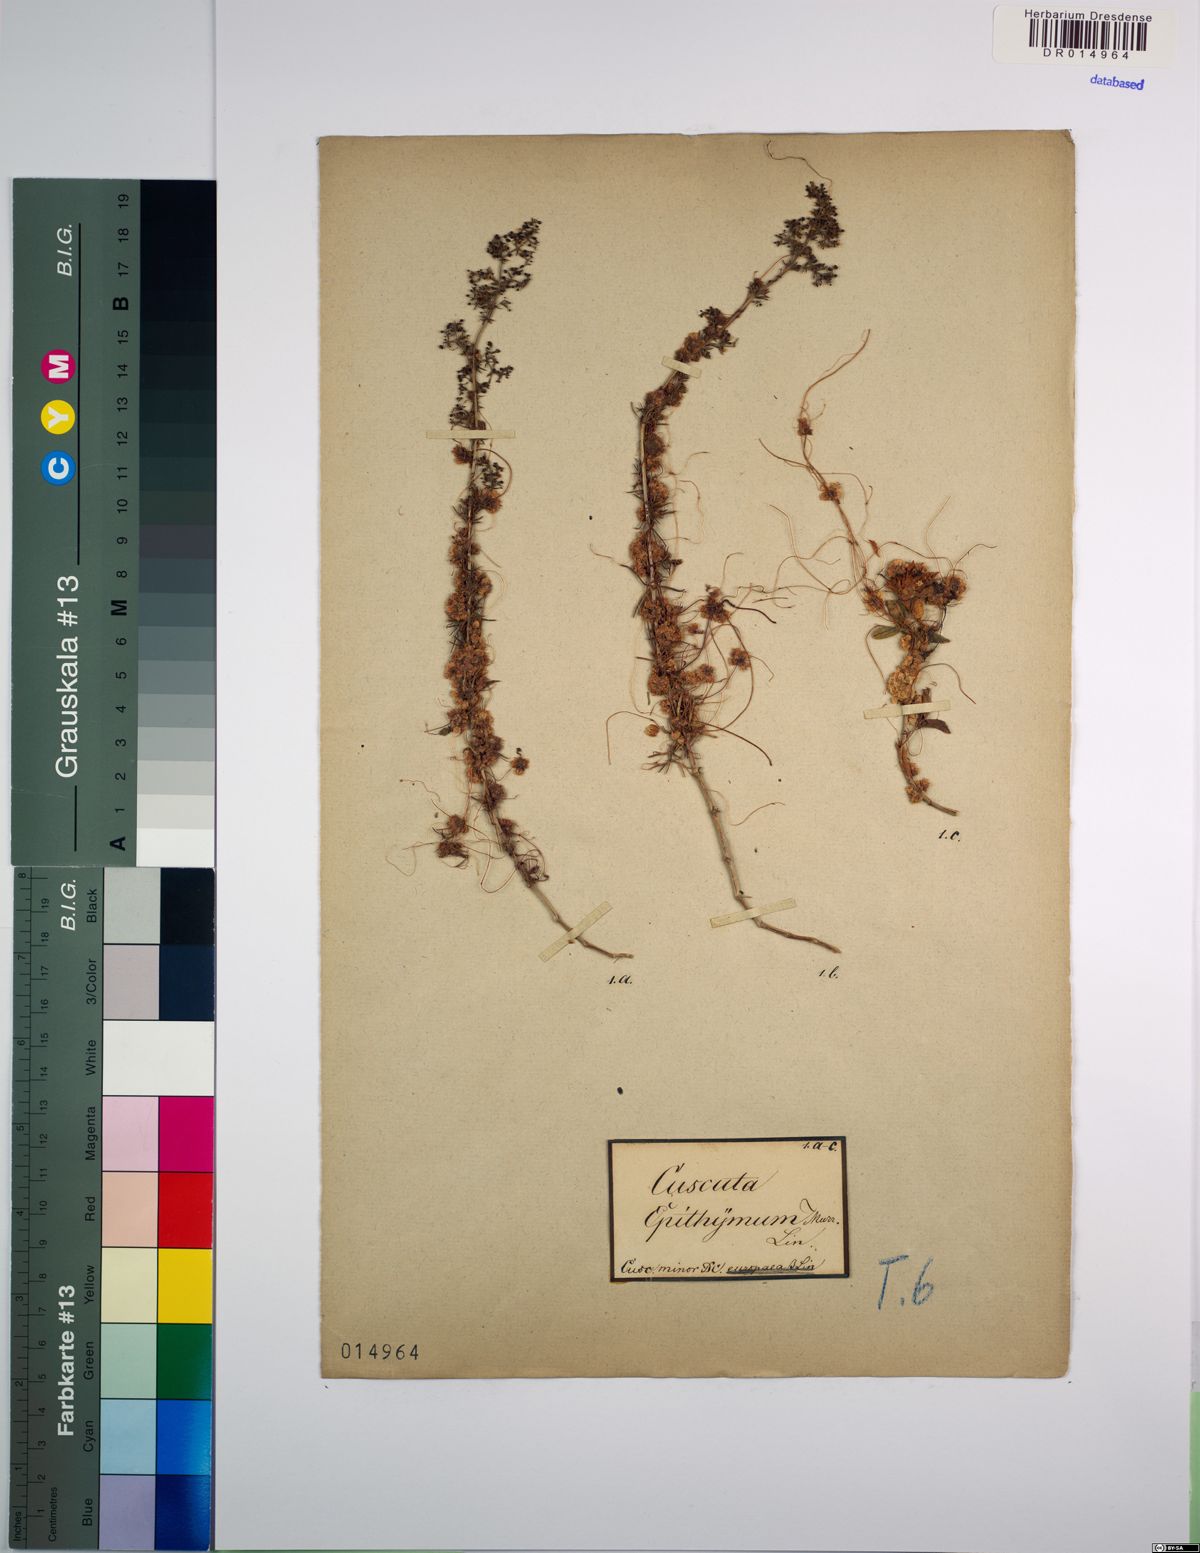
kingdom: Plantae
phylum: Tracheophyta
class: Magnoliopsida
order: Solanales
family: Convolvulaceae
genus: Cuscuta
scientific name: Cuscuta epithymum
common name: Clover dodder
